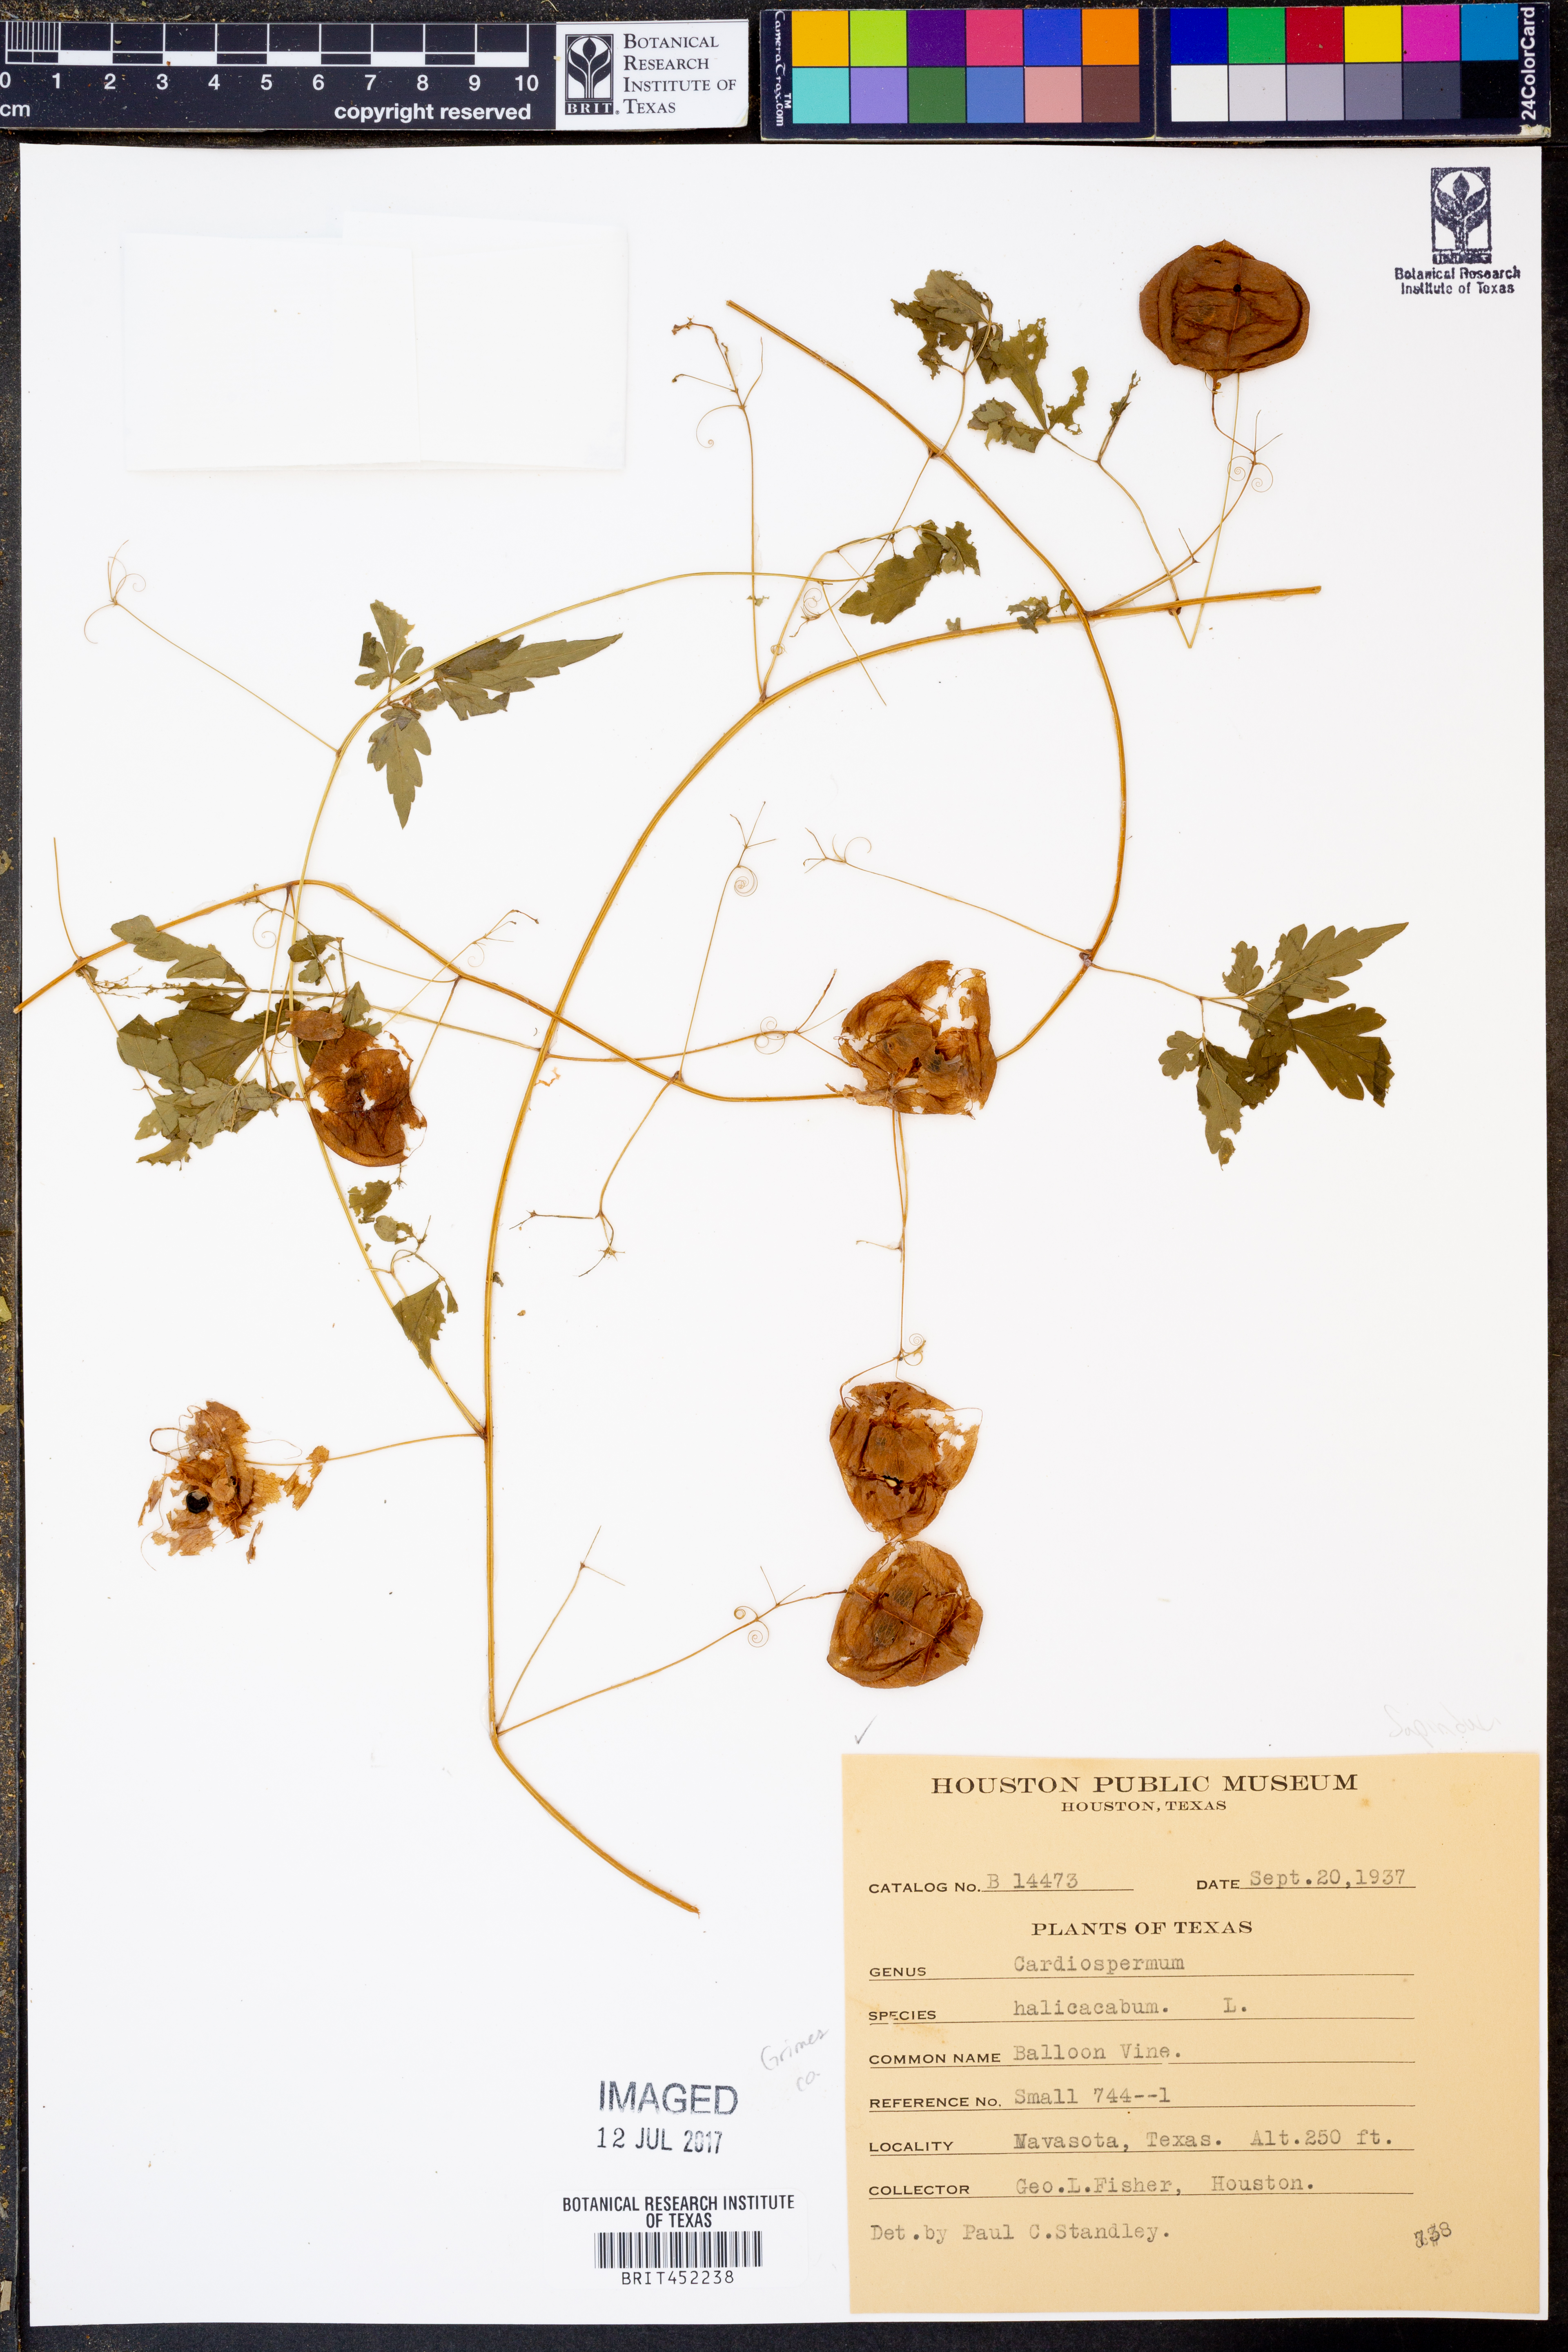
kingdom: Plantae
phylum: Tracheophyta
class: Magnoliopsida
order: Sapindales
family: Sapindaceae
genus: Cardiospermum
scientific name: Cardiospermum halicacabum
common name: Balloon vine
